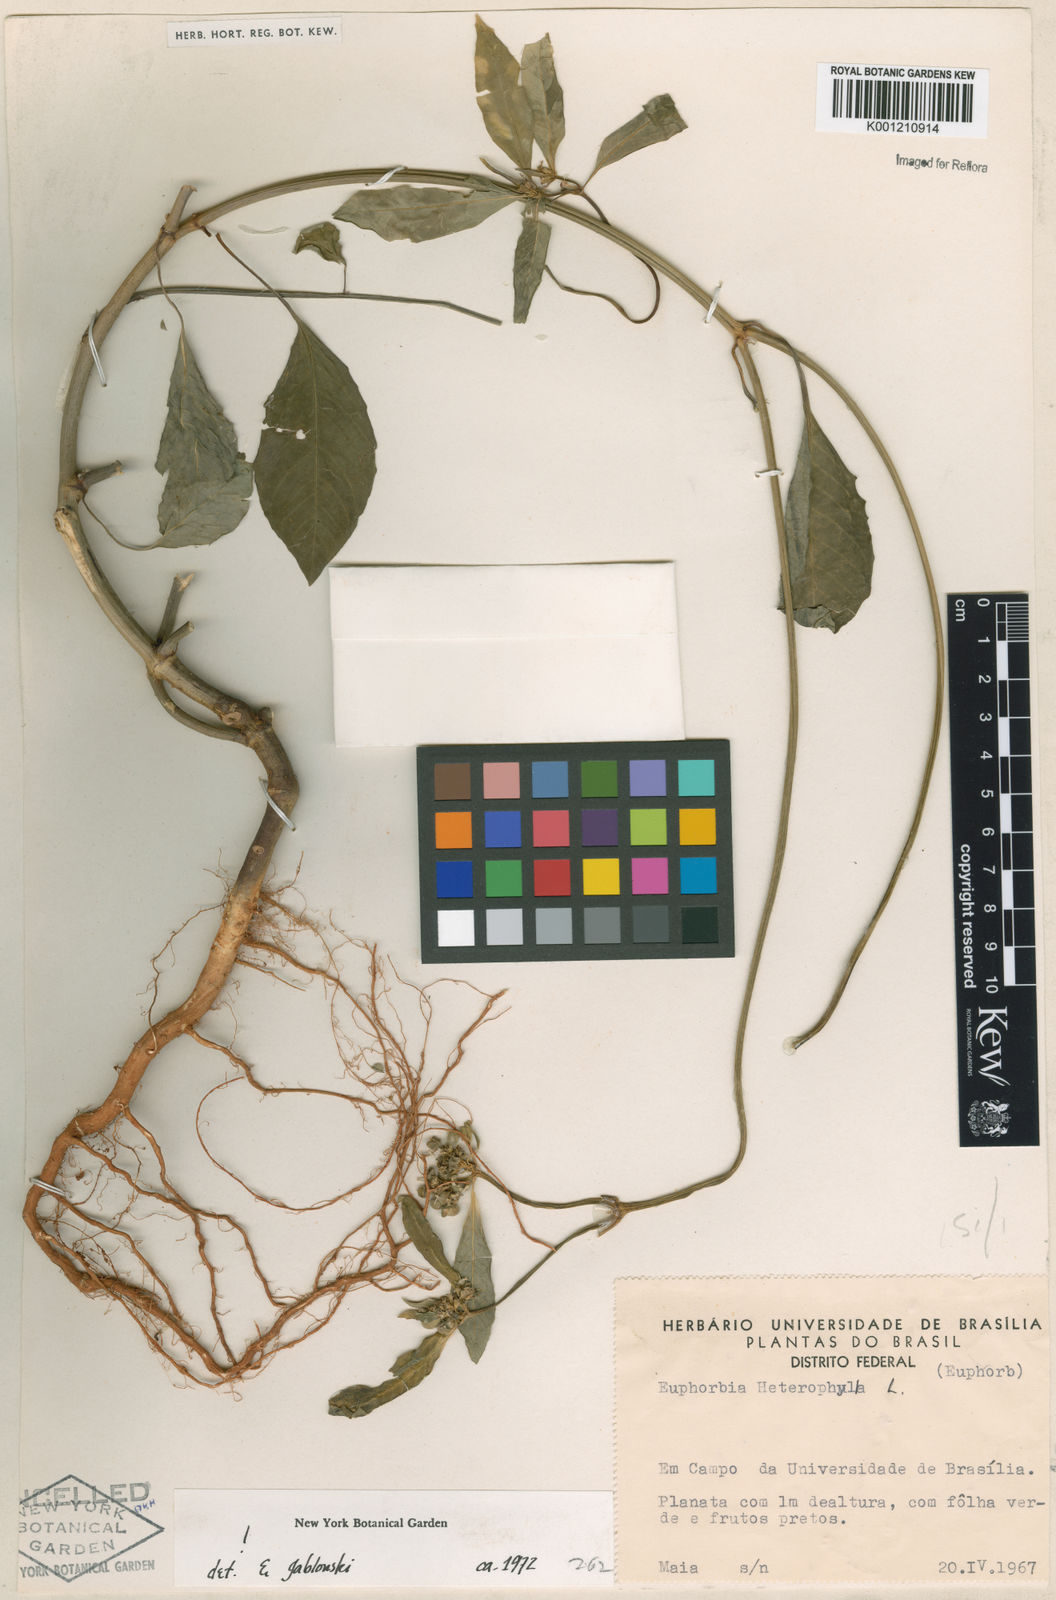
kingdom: Plantae
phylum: Tracheophyta
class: Magnoliopsida
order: Malpighiales
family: Euphorbiaceae
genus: Euphorbia
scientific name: Euphorbia heterophylla
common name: Mexican fireplant
